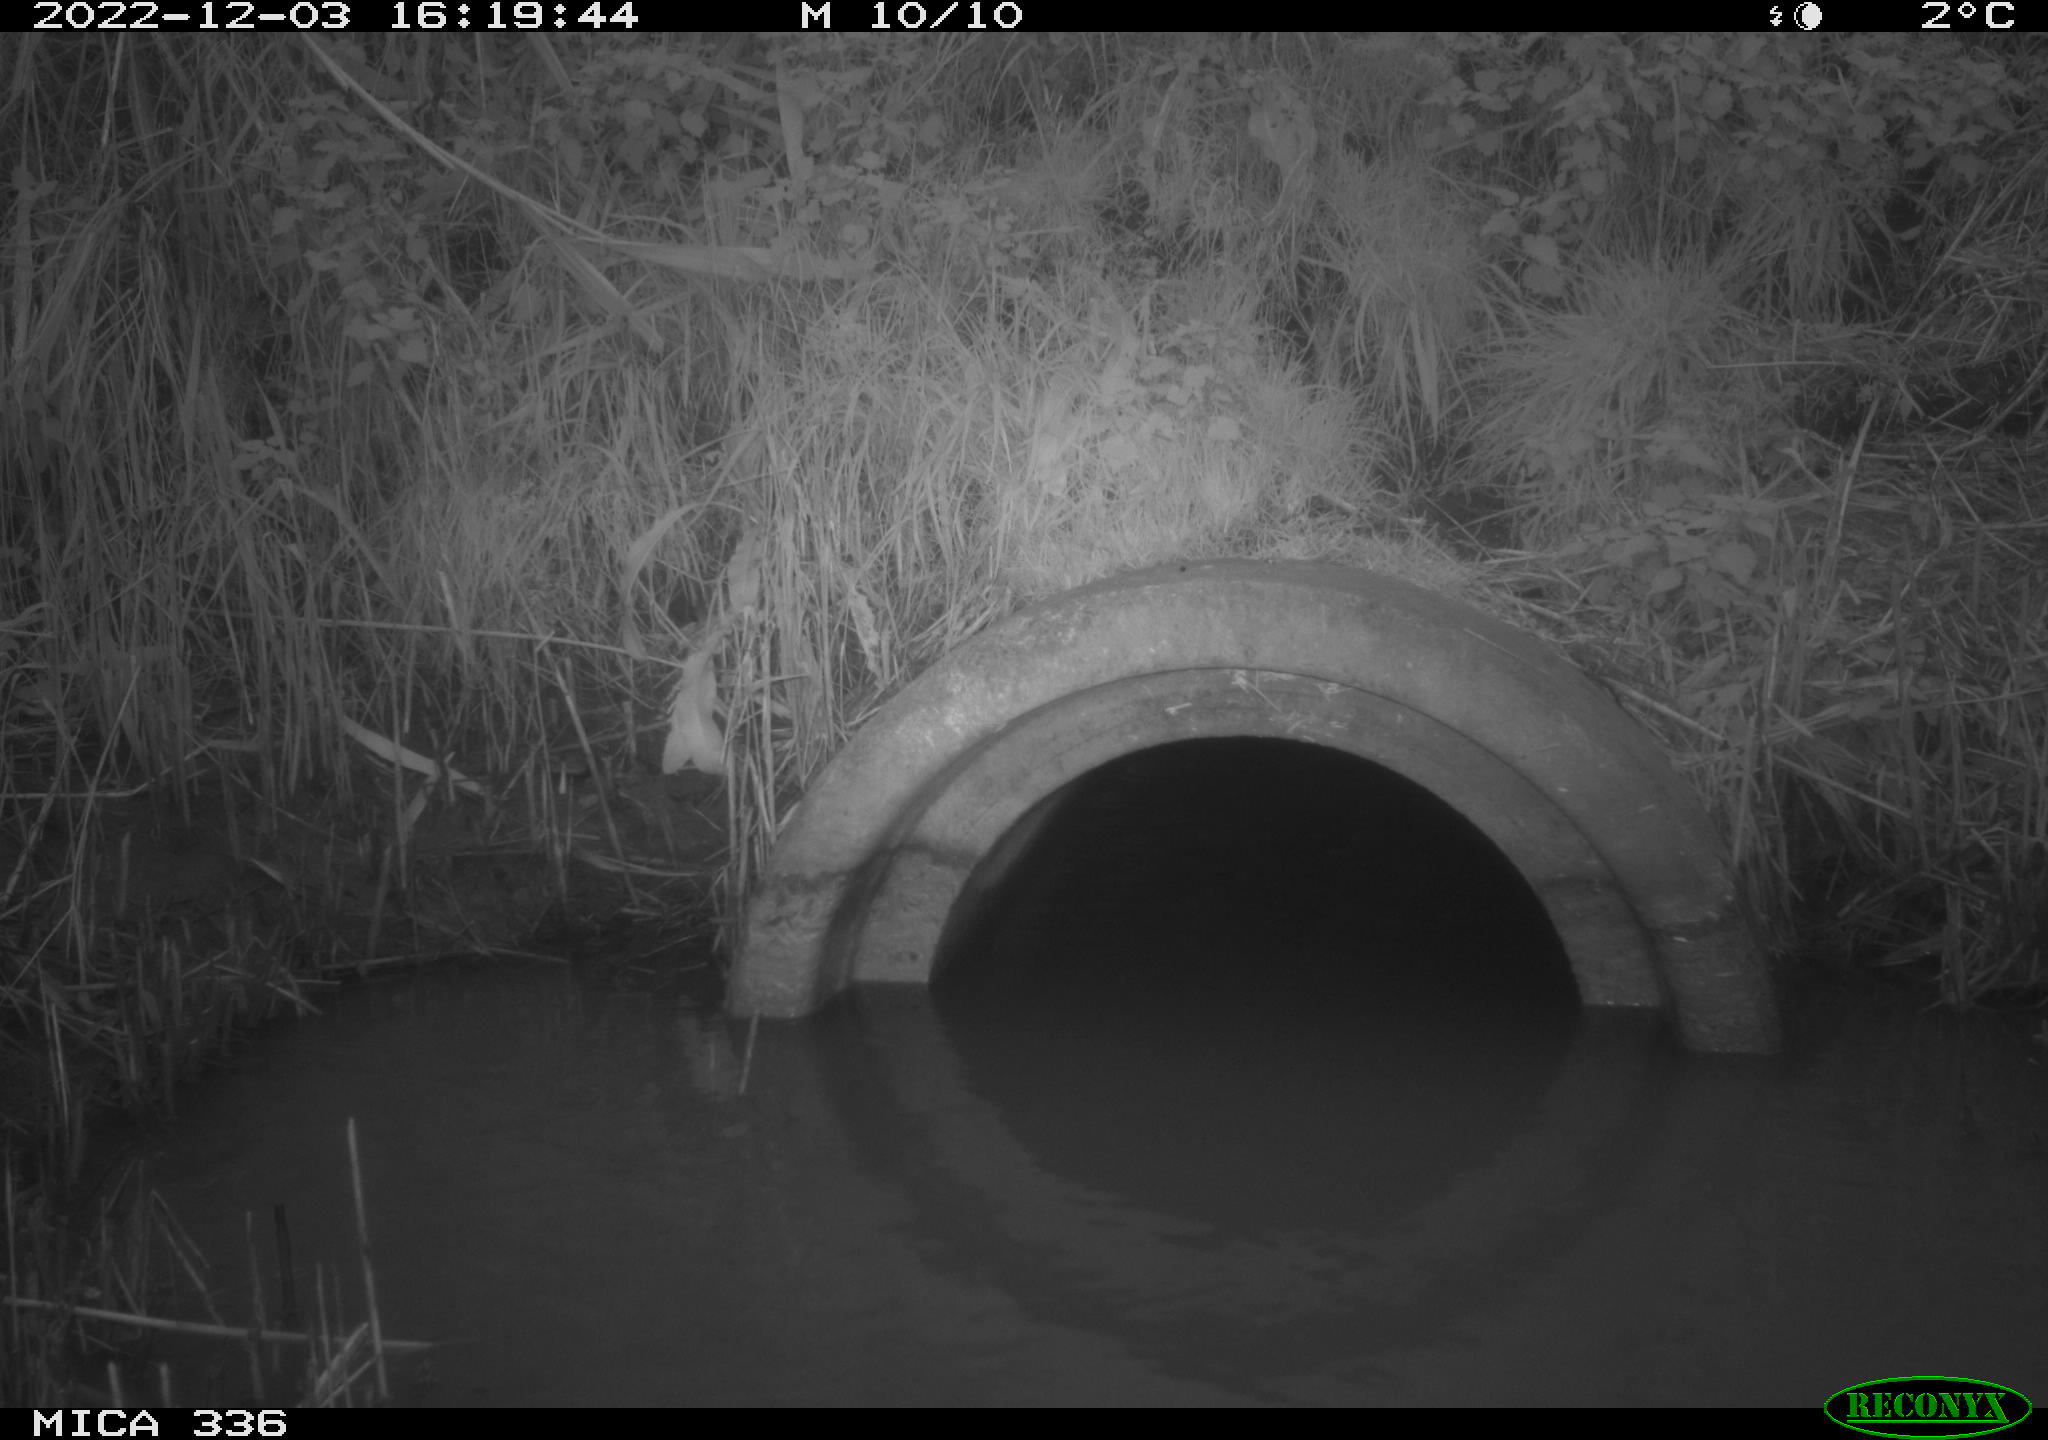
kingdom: Animalia
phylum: Chordata
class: Aves
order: Gruiformes
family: Rallidae
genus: Rallus
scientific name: Rallus aquaticus
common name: Water rail
